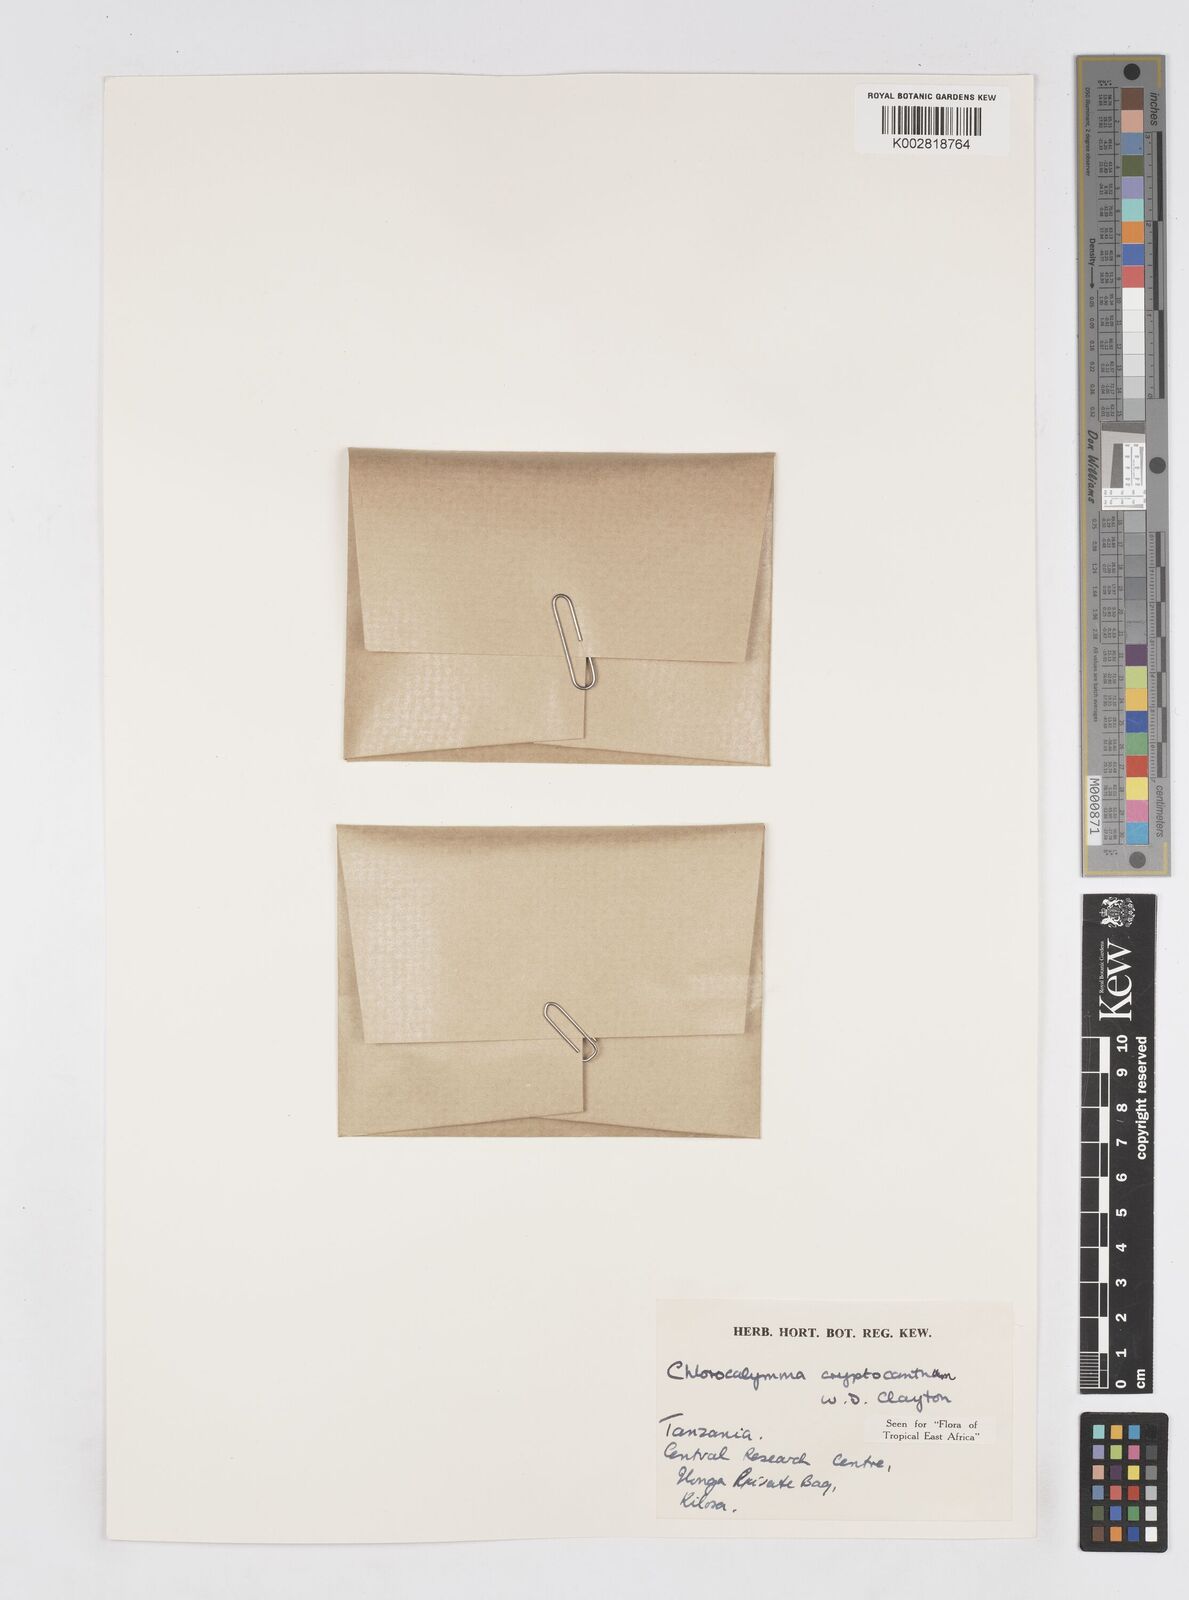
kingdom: Plantae
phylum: Tracheophyta
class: Liliopsida
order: Poales
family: Poaceae
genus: Chlorocalymma
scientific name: Chlorocalymma cryptacanthum
